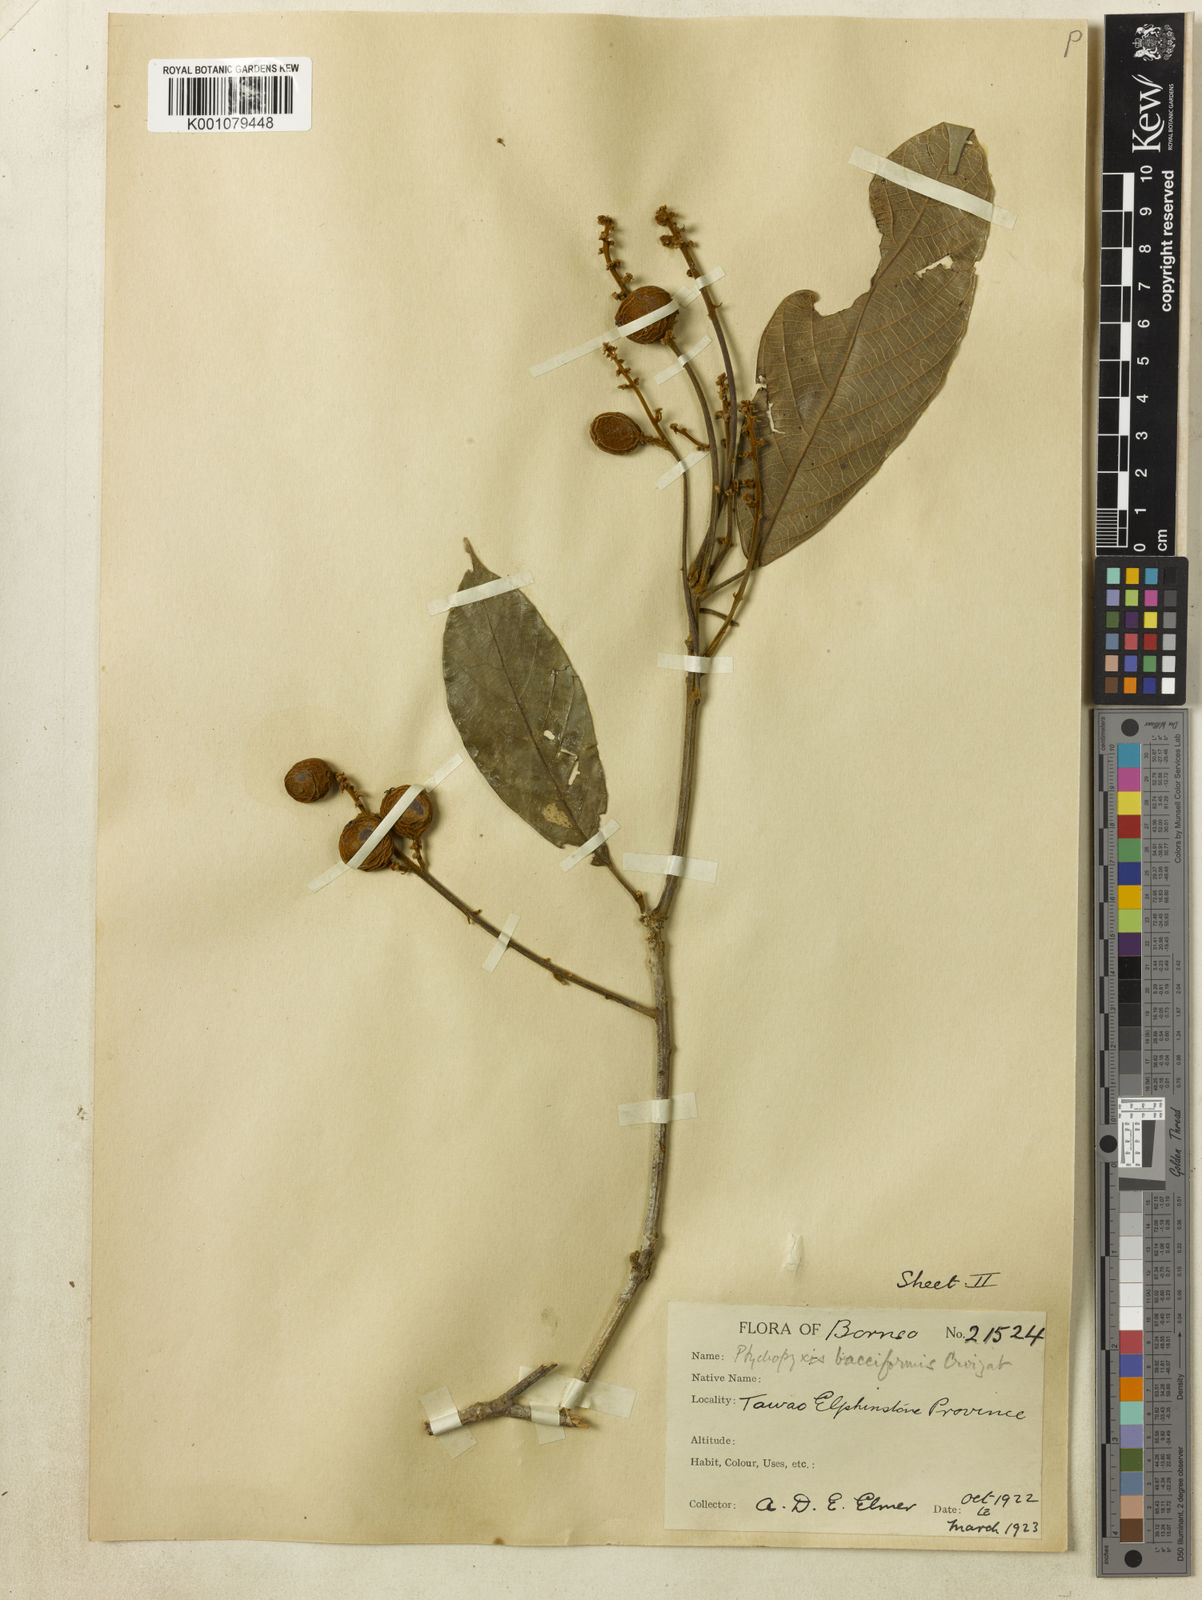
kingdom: Plantae
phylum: Tracheophyta
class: Magnoliopsida
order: Malpighiales
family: Euphorbiaceae
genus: Ptychopyxis
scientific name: Ptychopyxis bacciformis
